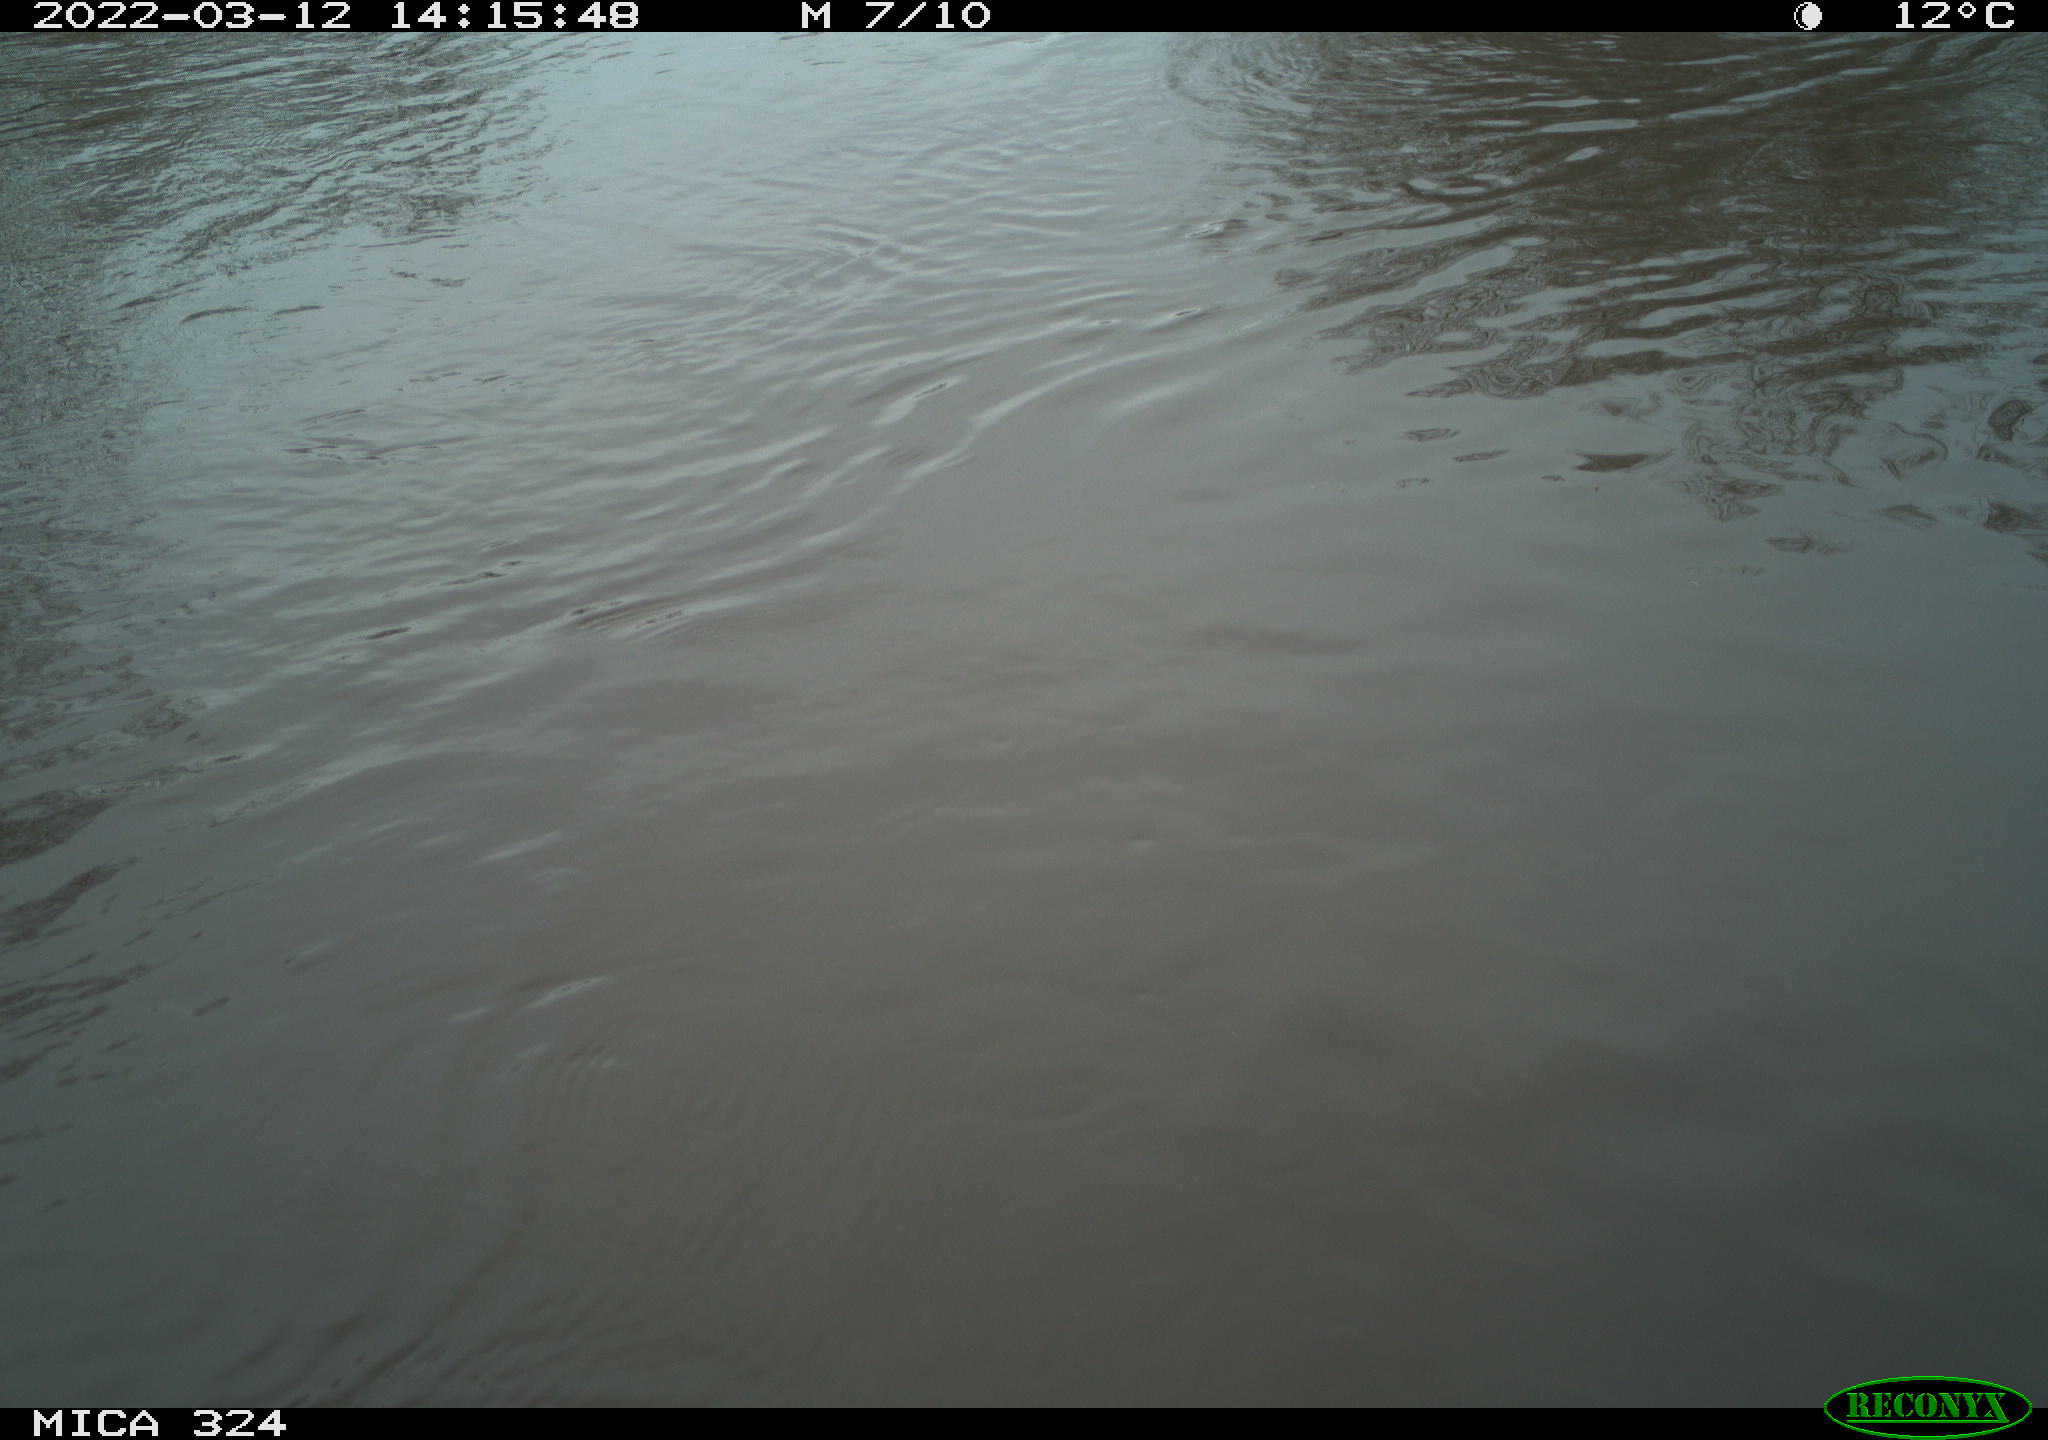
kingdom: Animalia
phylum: Chordata
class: Mammalia
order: Rodentia
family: Cricetidae
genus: Ondatra
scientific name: Ondatra zibethicus
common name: Muskrat
